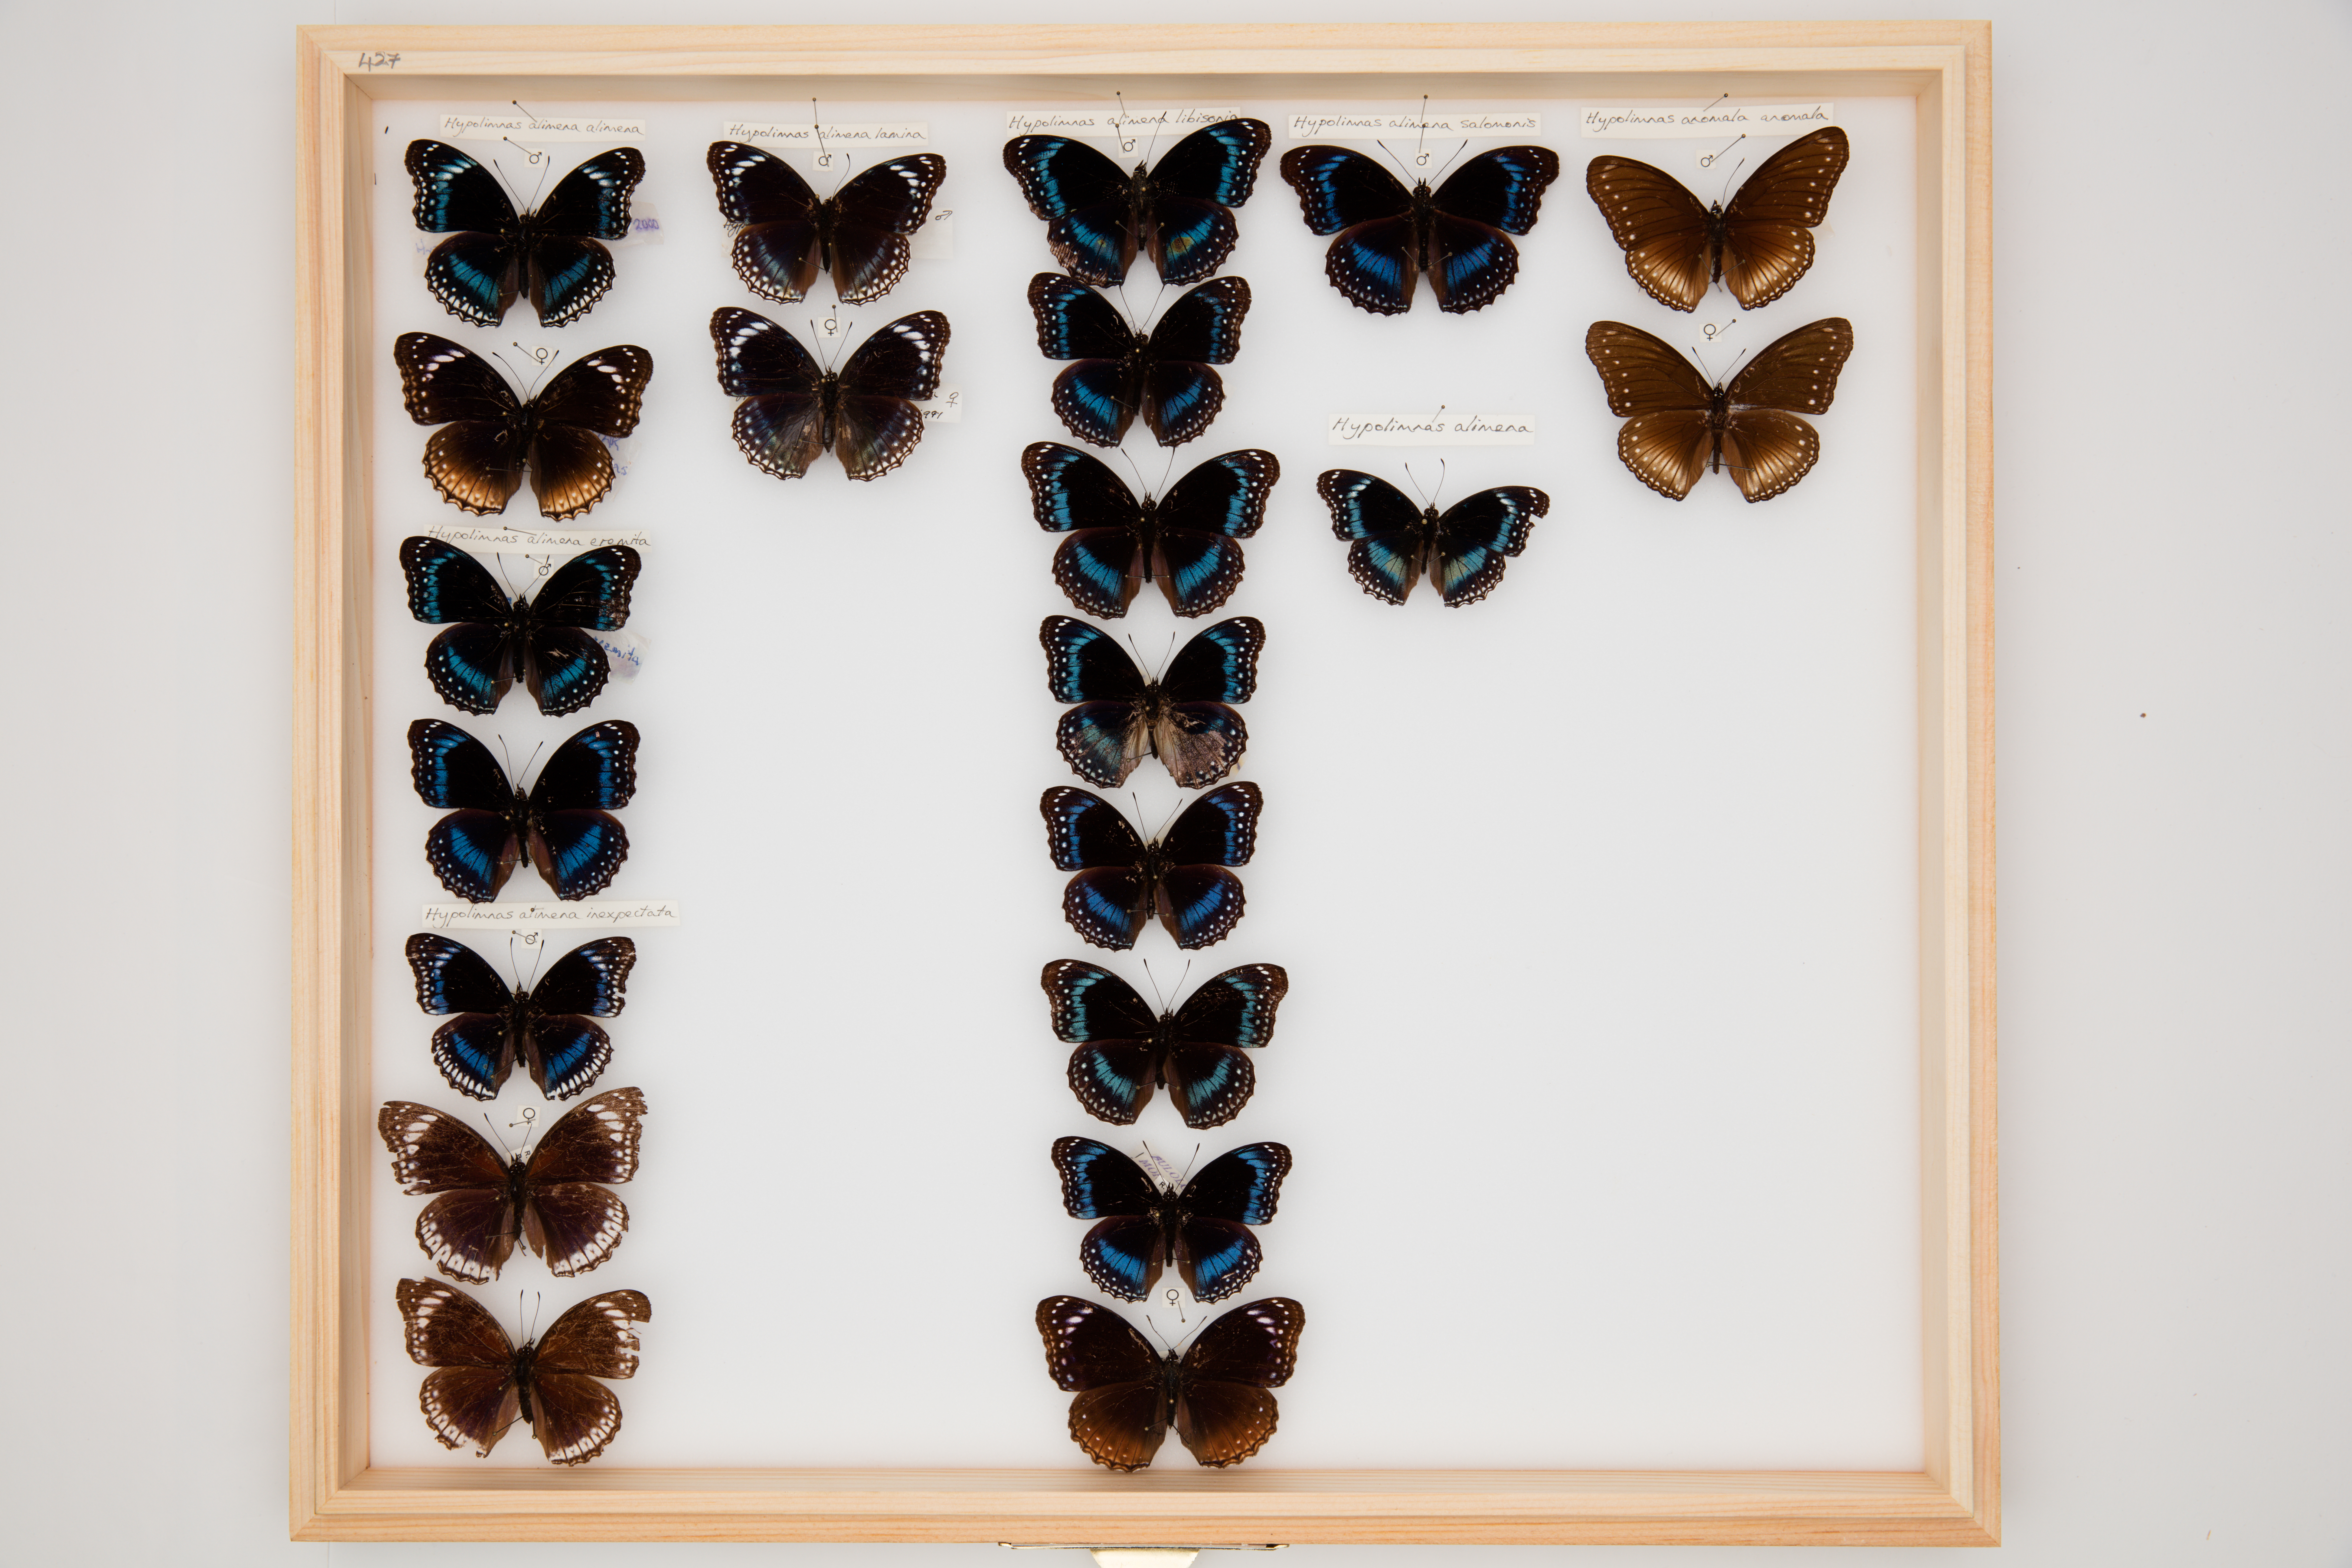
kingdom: Animalia
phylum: Arthropoda
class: Insecta
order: Lepidoptera
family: Nymphalidae
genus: Hypolimnas
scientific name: Hypolimnas alimena
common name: Blue-banded eggfly
